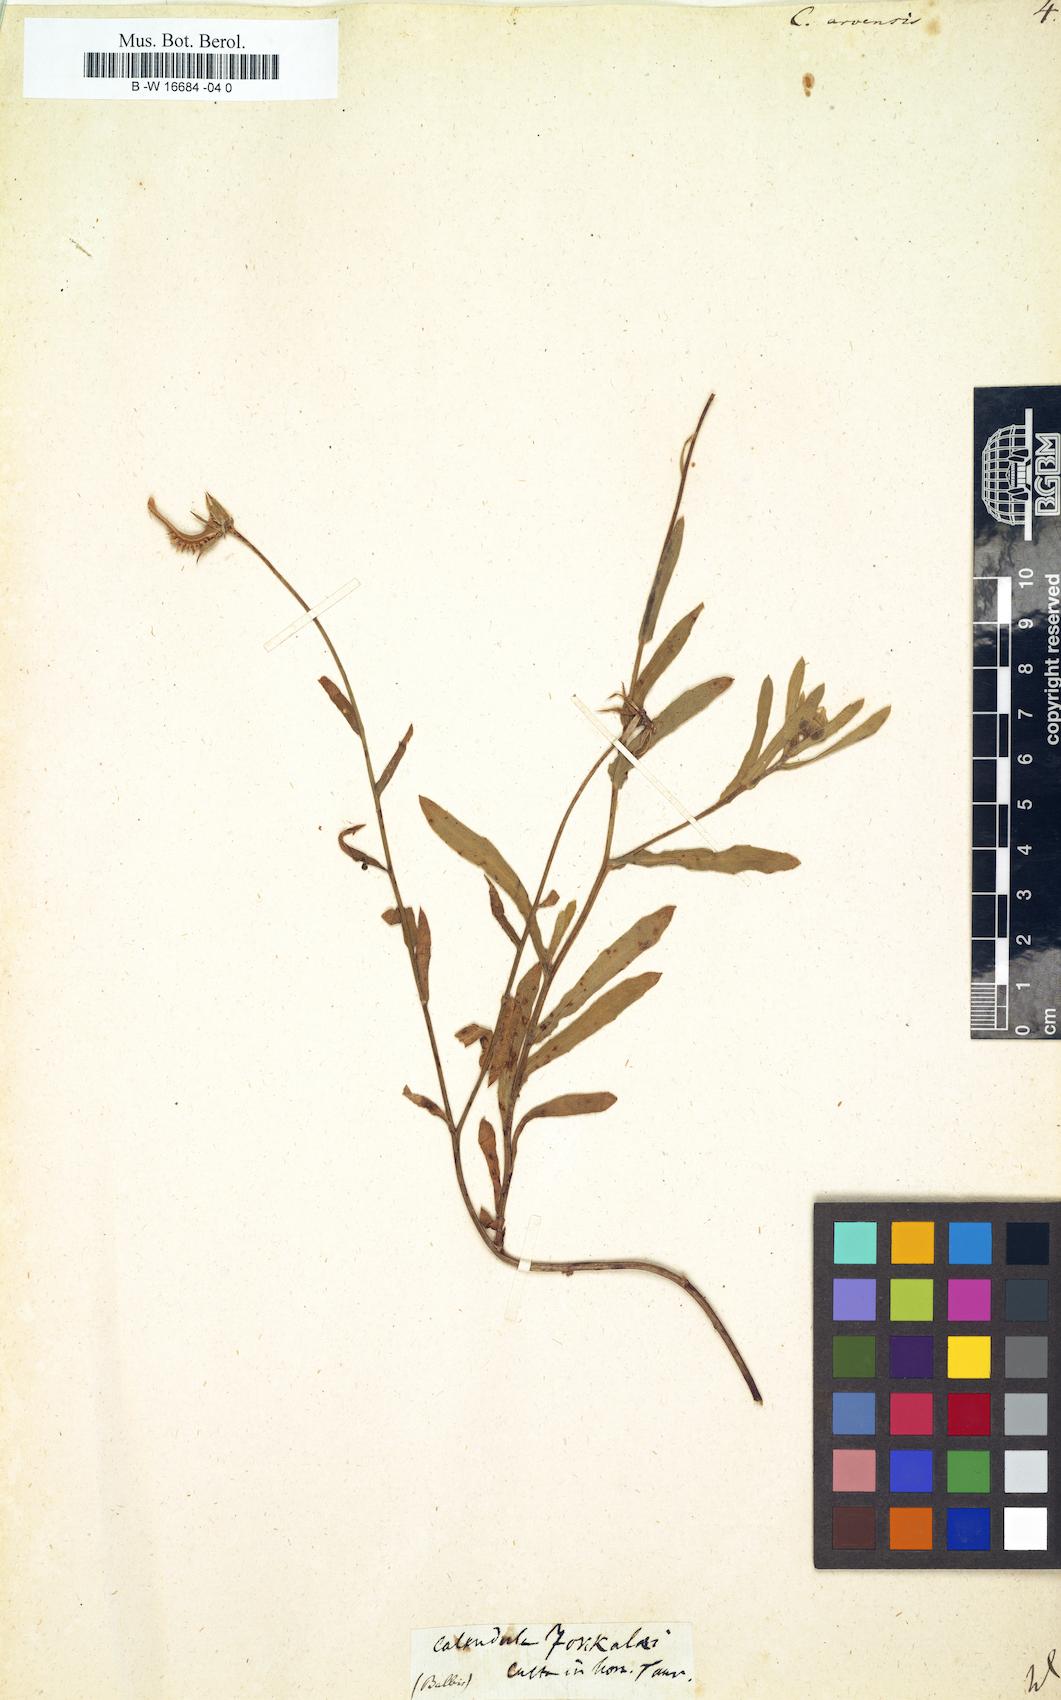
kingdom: Plantae
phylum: Tracheophyta
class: Magnoliopsida
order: Asterales
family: Asteraceae
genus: Calendula
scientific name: Calendula arvensis
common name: Field marigold
